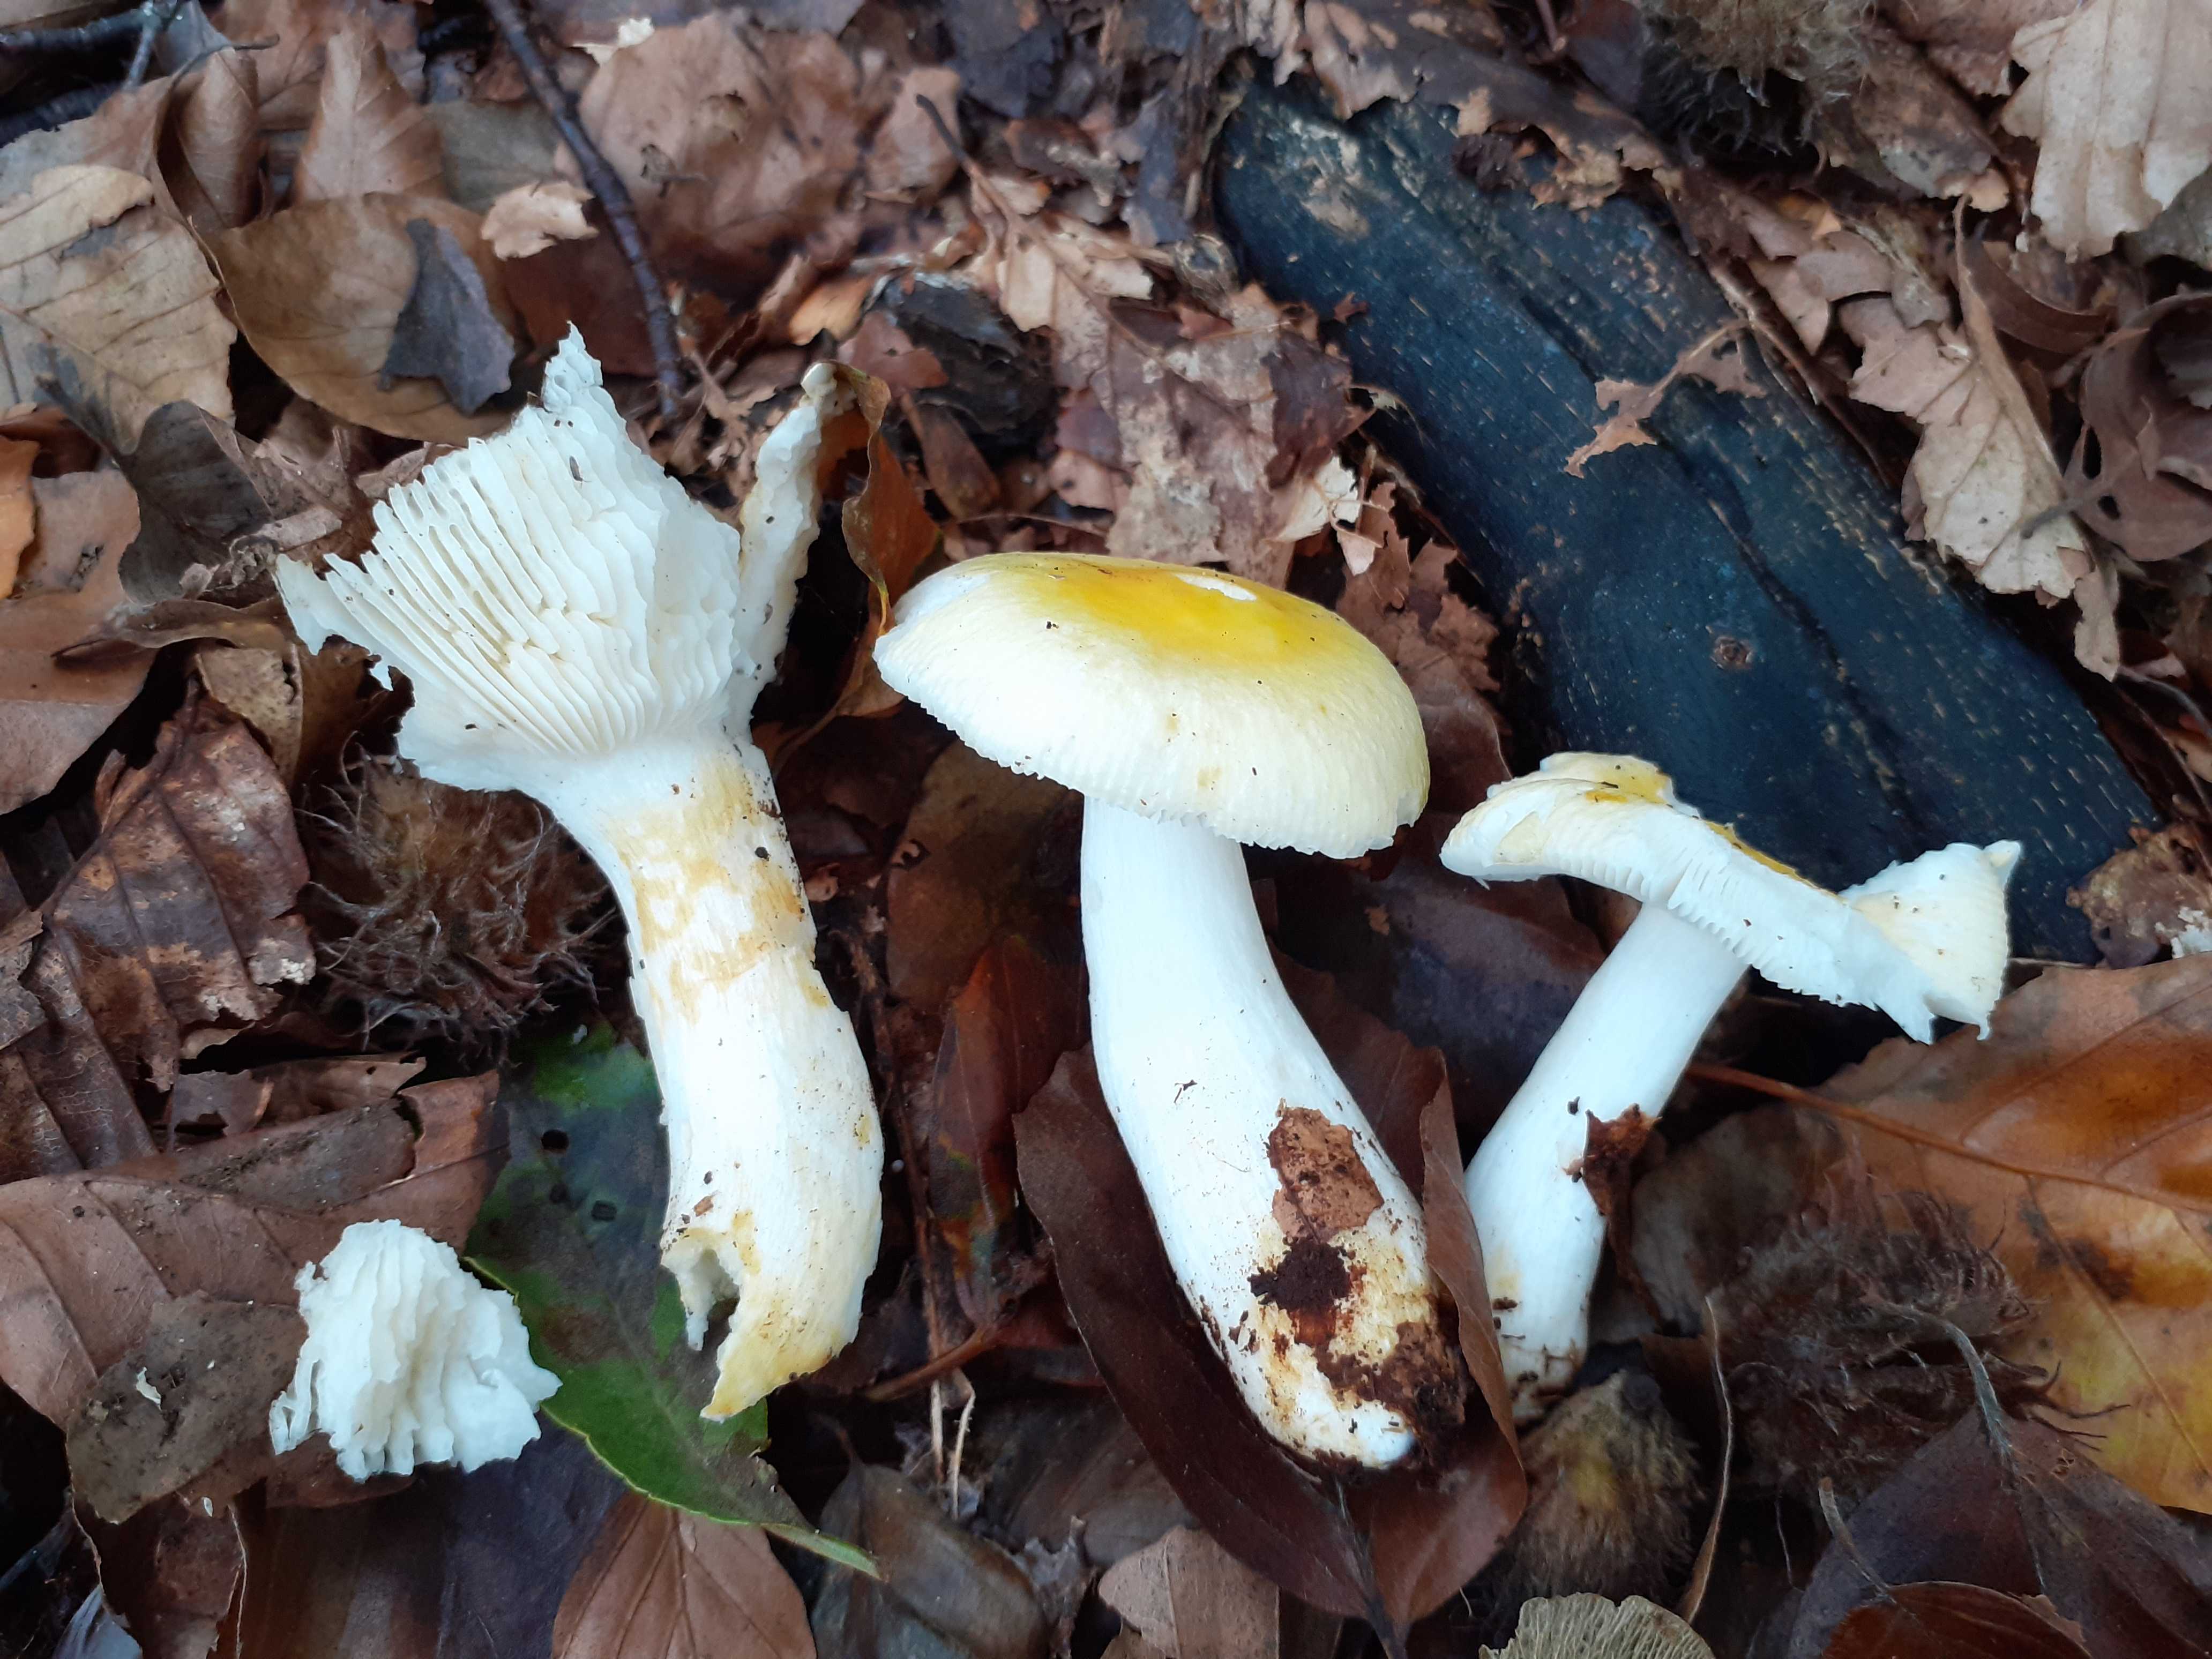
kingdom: Fungi
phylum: Basidiomycota
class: Agaricomycetes
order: Russulales
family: Russulaceae
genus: Russula
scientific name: Russula solaris
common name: sol-skørhat
